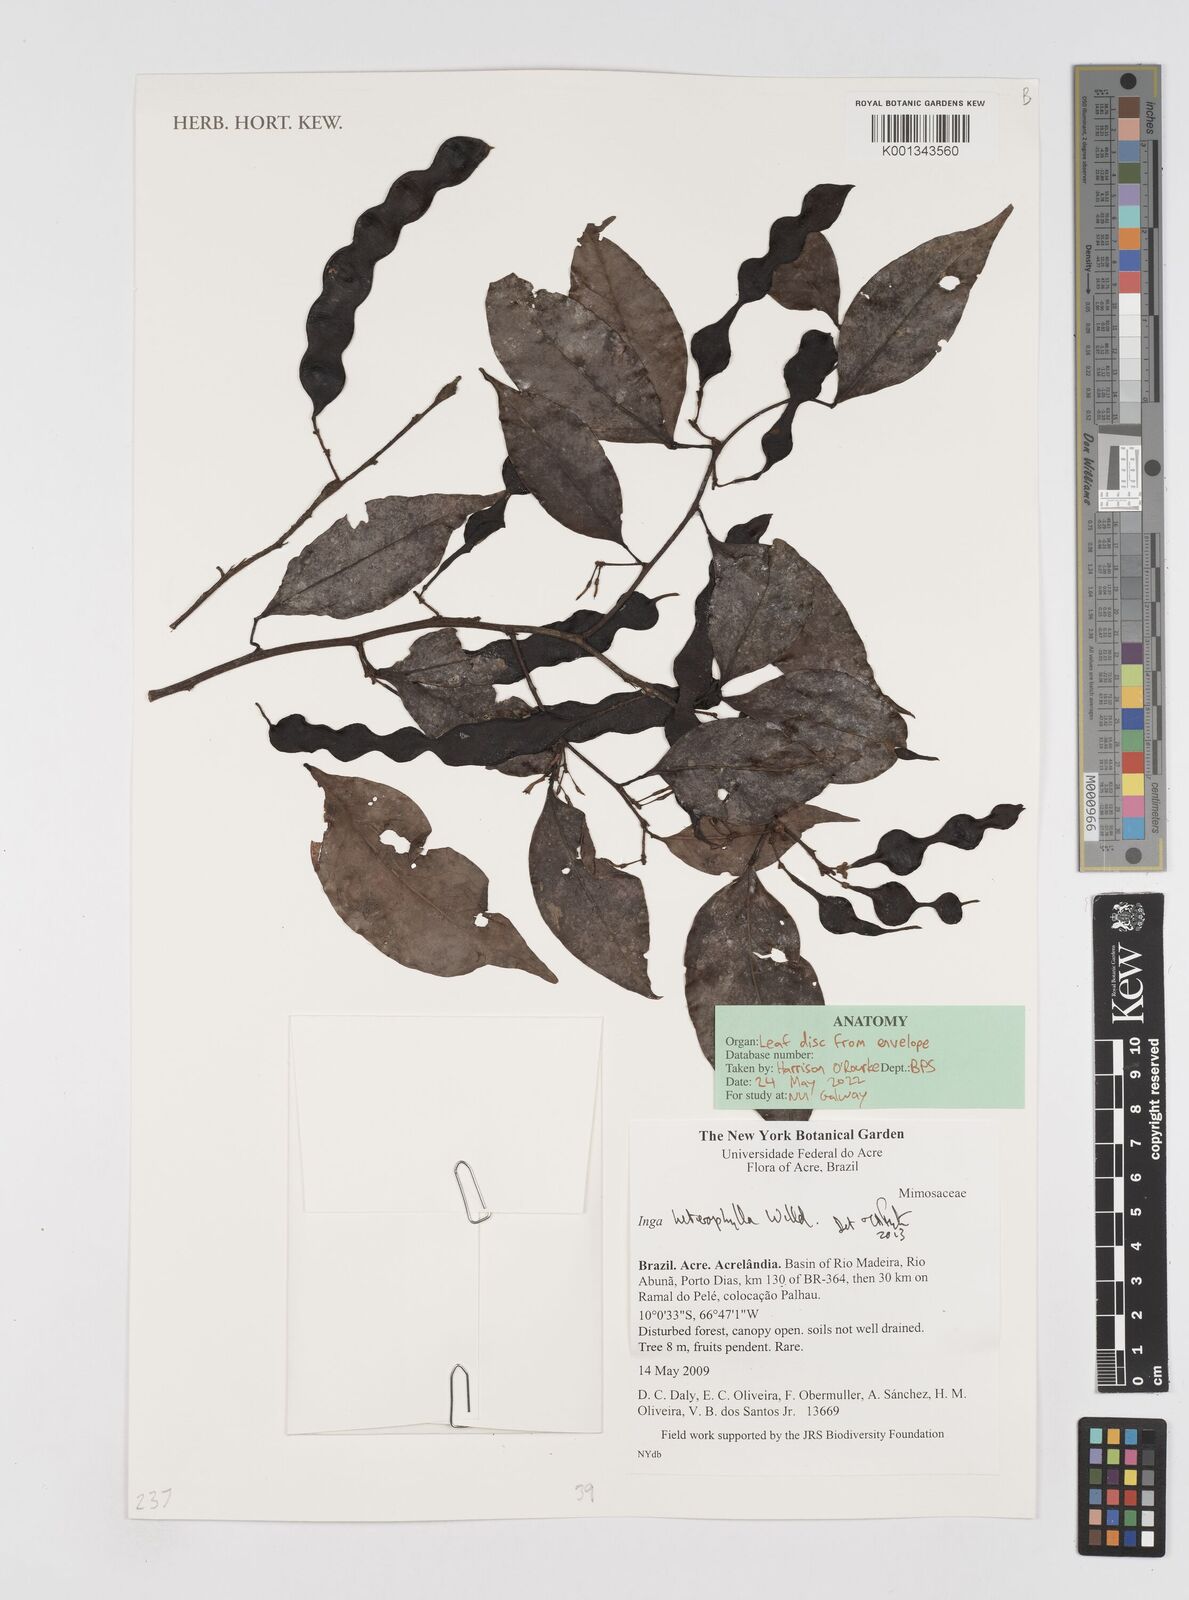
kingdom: Plantae
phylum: Tracheophyta
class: Magnoliopsida
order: Fabales
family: Fabaceae
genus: Inga
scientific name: Inga heterophylla
